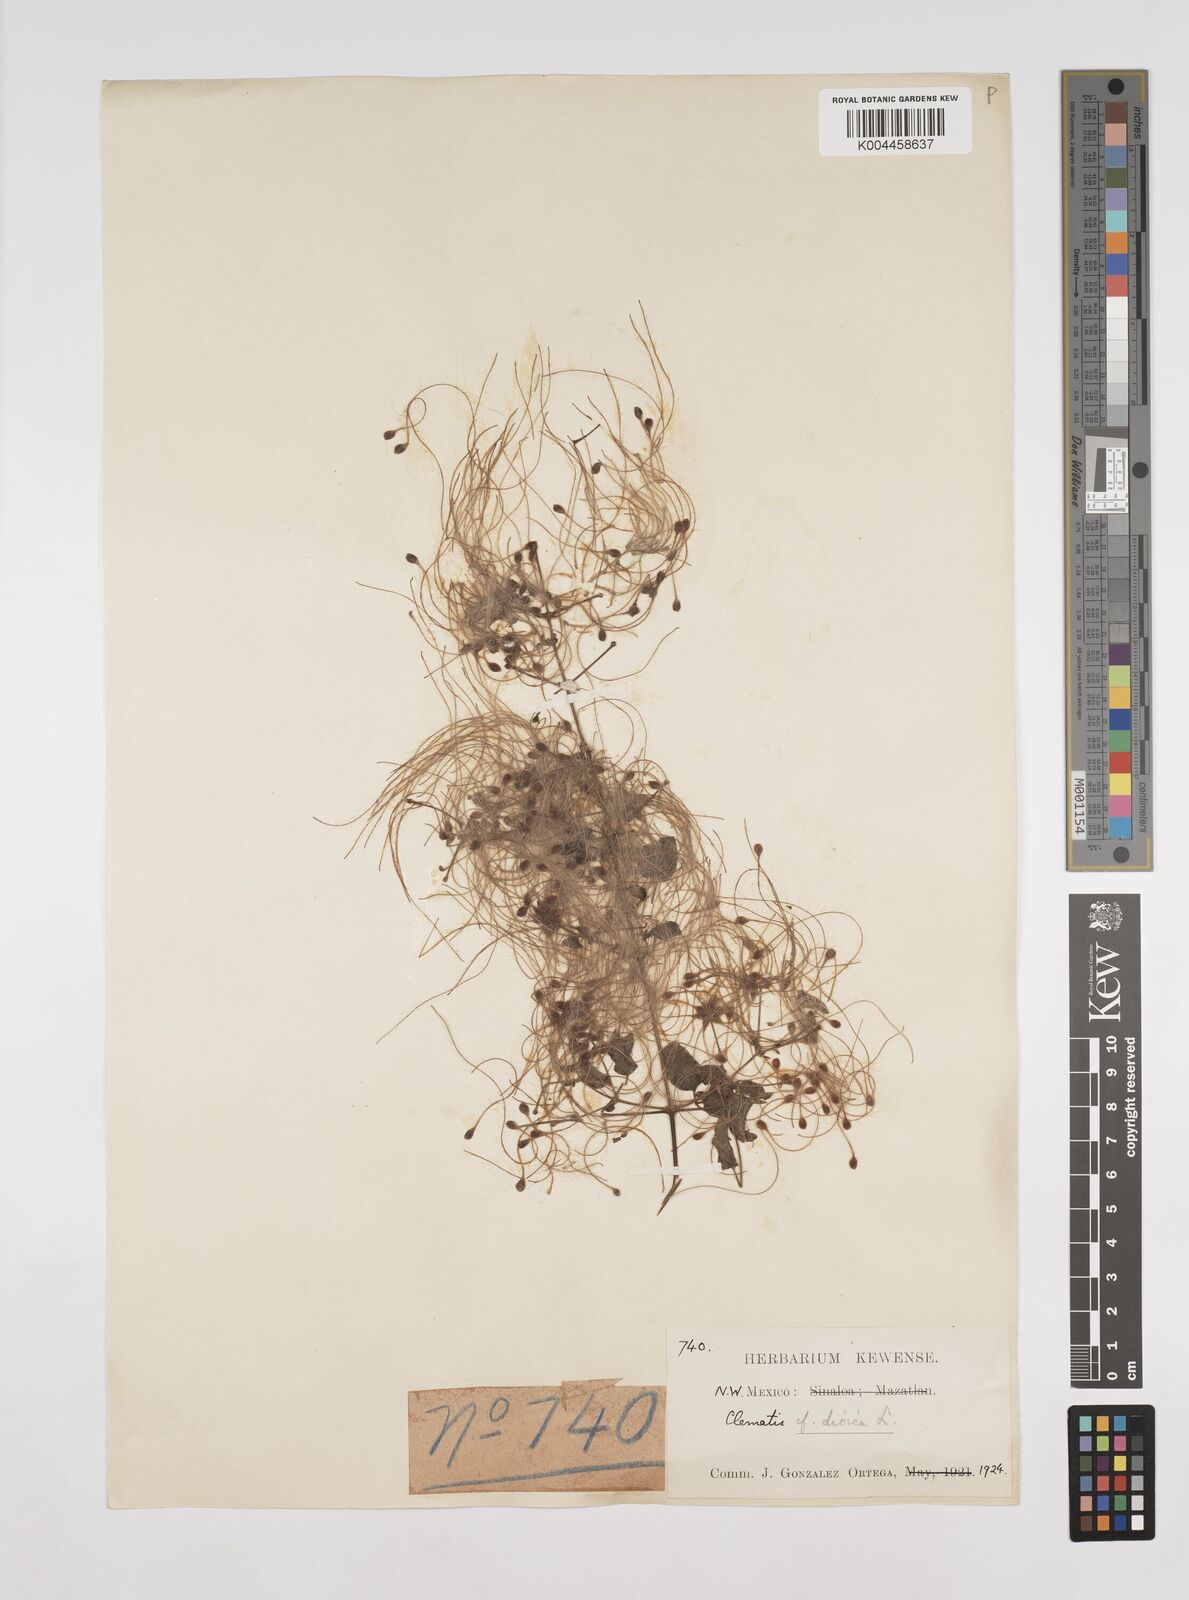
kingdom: Plantae
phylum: Tracheophyta
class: Magnoliopsida
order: Ranunculales
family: Ranunculaceae
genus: Clematis
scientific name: Clematis dioica
